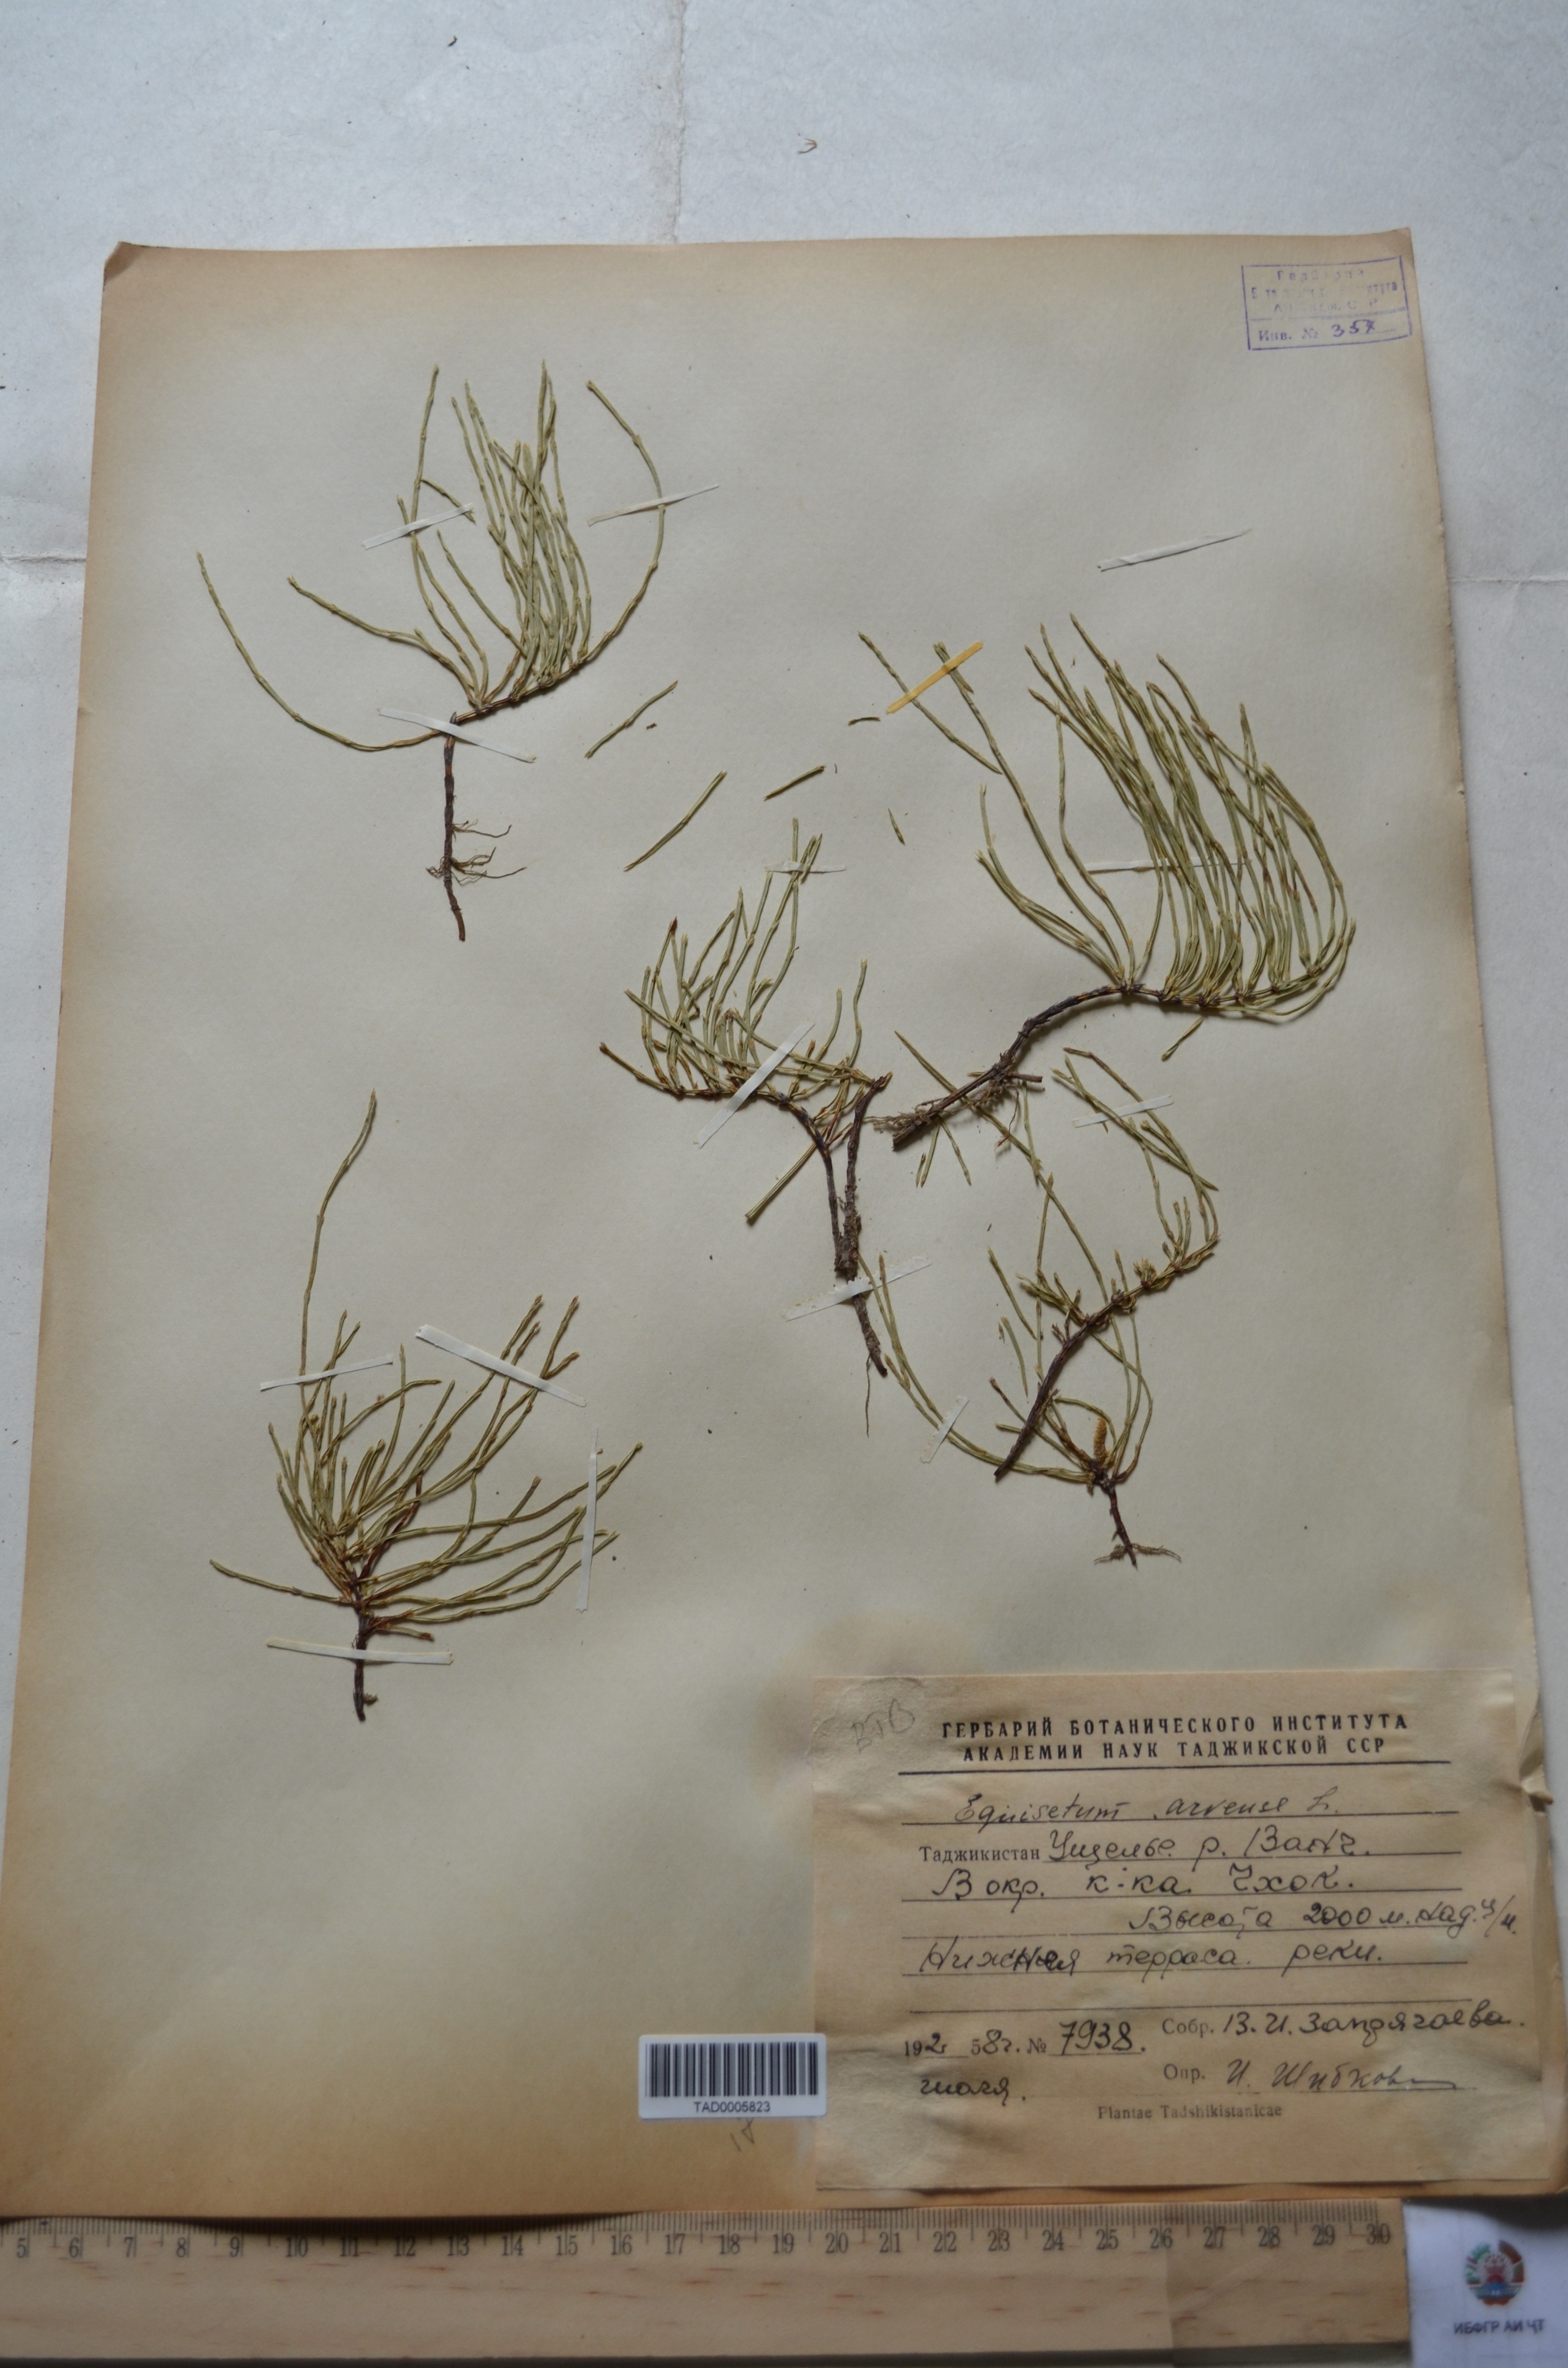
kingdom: Plantae
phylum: Tracheophyta
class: Polypodiopsida
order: Equisetales
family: Equisetaceae
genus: Equisetum
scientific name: Equisetum arvense
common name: Field horsetail
